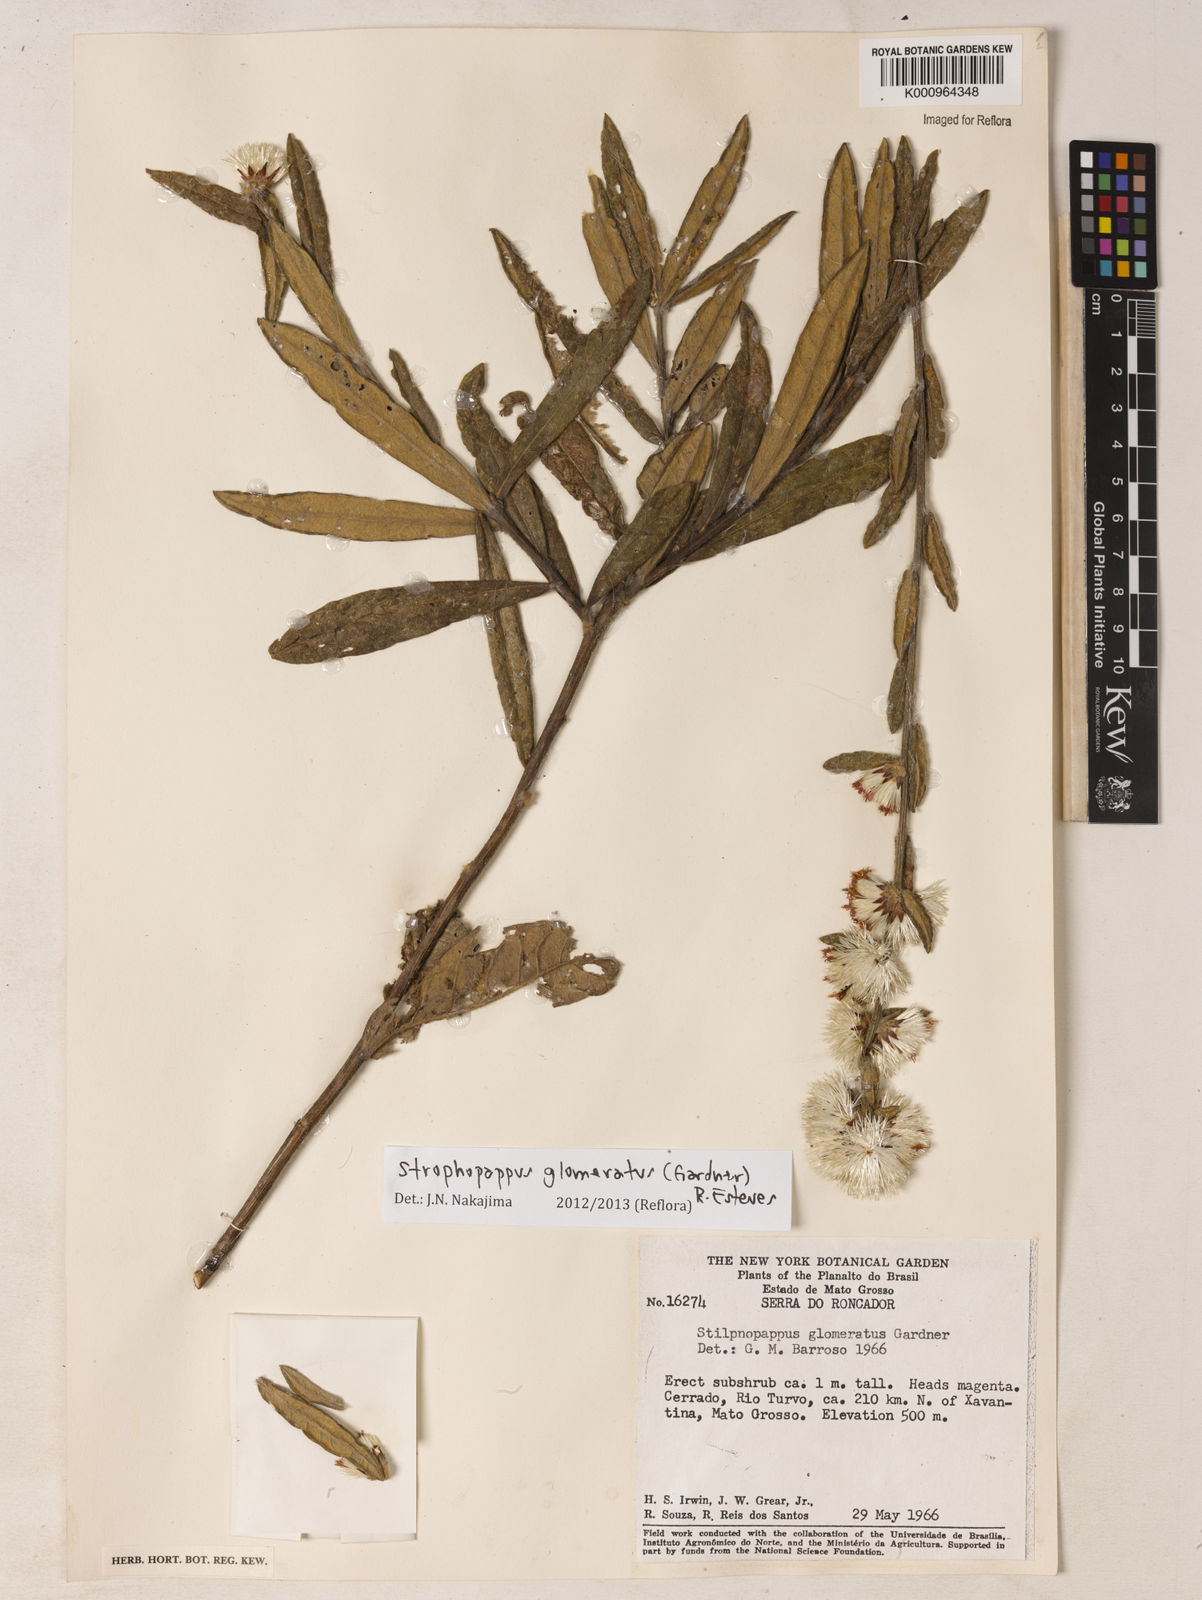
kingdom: Plantae
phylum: Tracheophyta
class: Magnoliopsida
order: Asterales
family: Asteraceae
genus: Stilpnopappus
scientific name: Stilpnopappus glomeratus
